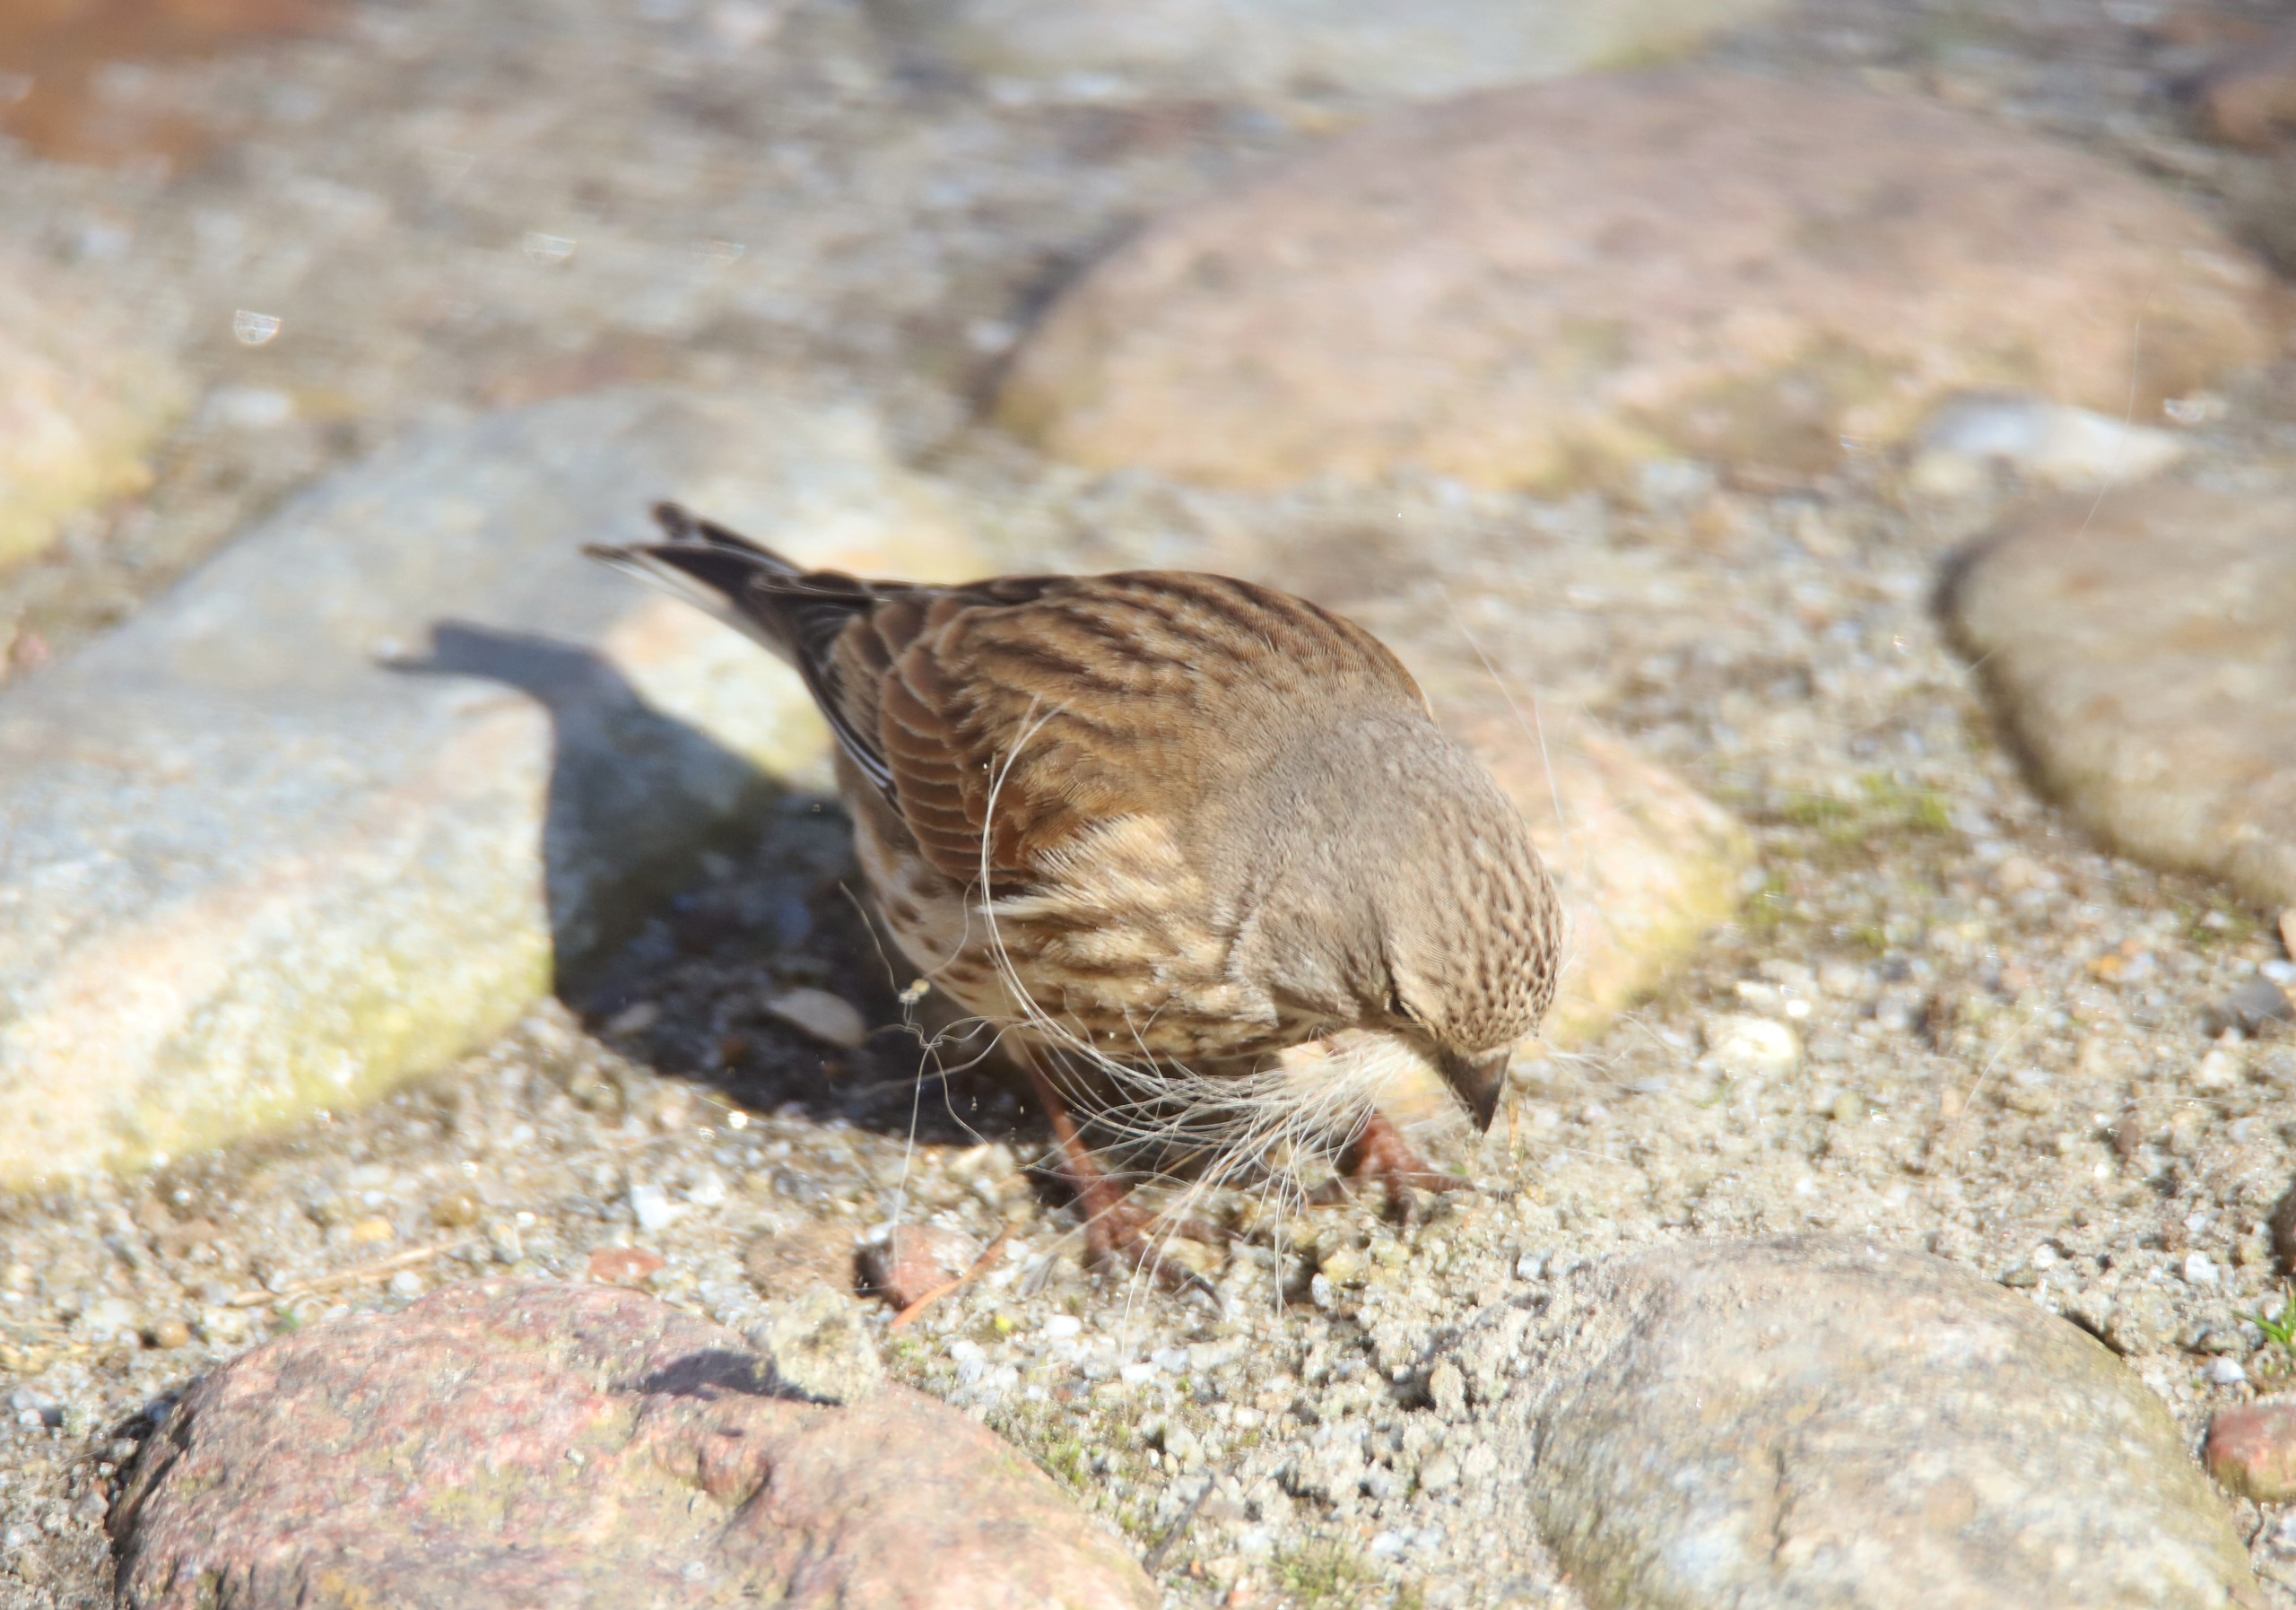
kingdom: Animalia
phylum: Chordata
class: Aves
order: Passeriformes
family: Fringillidae
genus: Linaria
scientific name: Linaria cannabina
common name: Tornirisk
